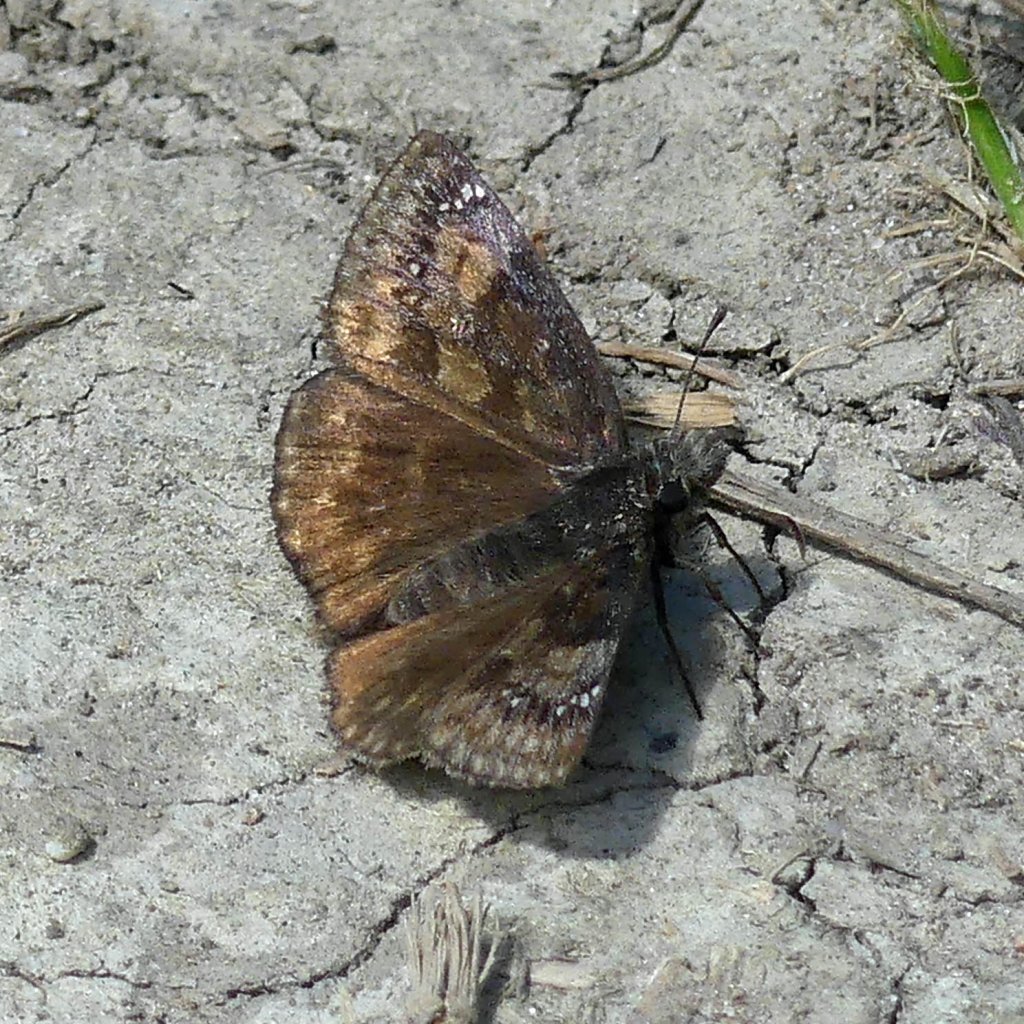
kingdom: Animalia
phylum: Arthropoda
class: Insecta
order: Lepidoptera
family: Hesperiidae
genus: Gesta
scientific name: Gesta
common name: Wild Indigo Duskywing
